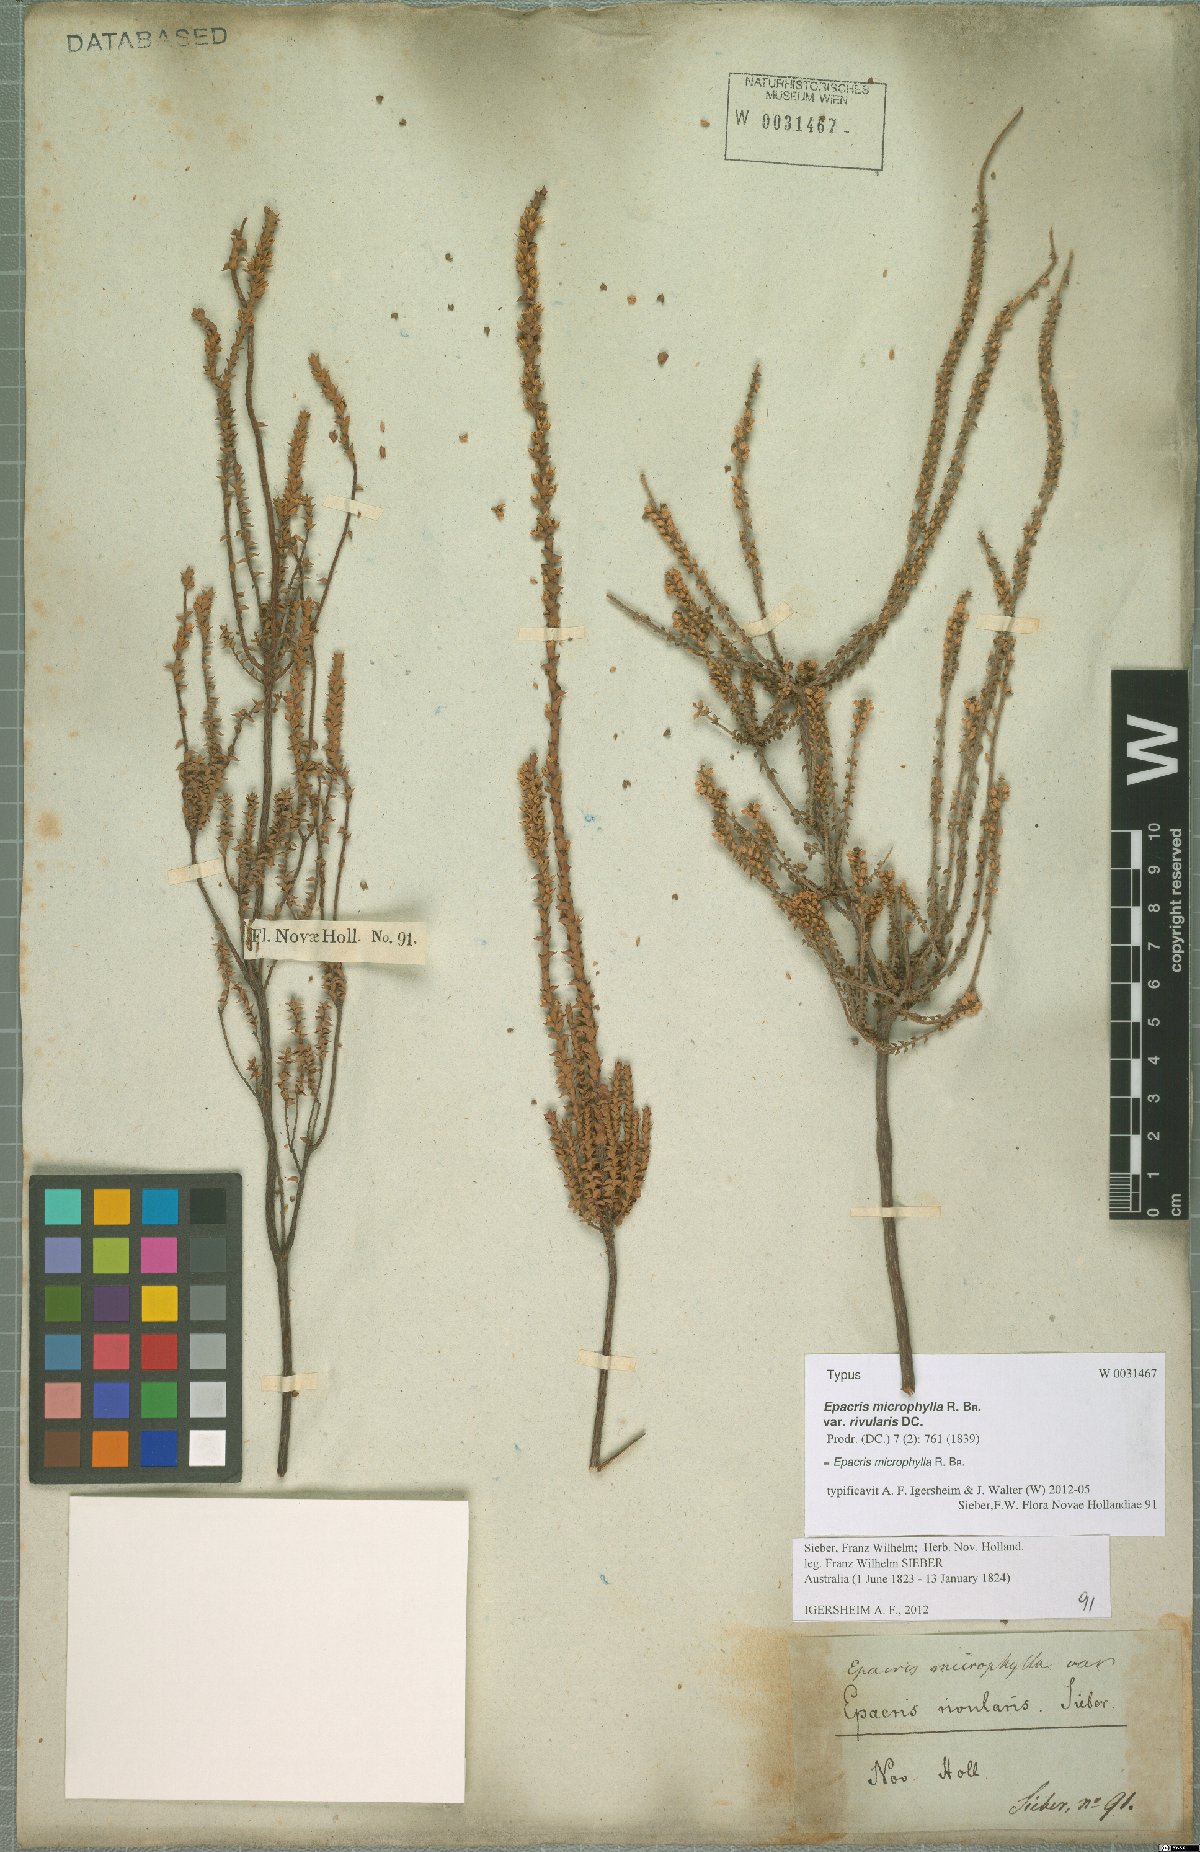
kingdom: Plantae
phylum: Tracheophyta
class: Magnoliopsida
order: Ericales
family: Ericaceae
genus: Epacris
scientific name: Epacris microphylla
